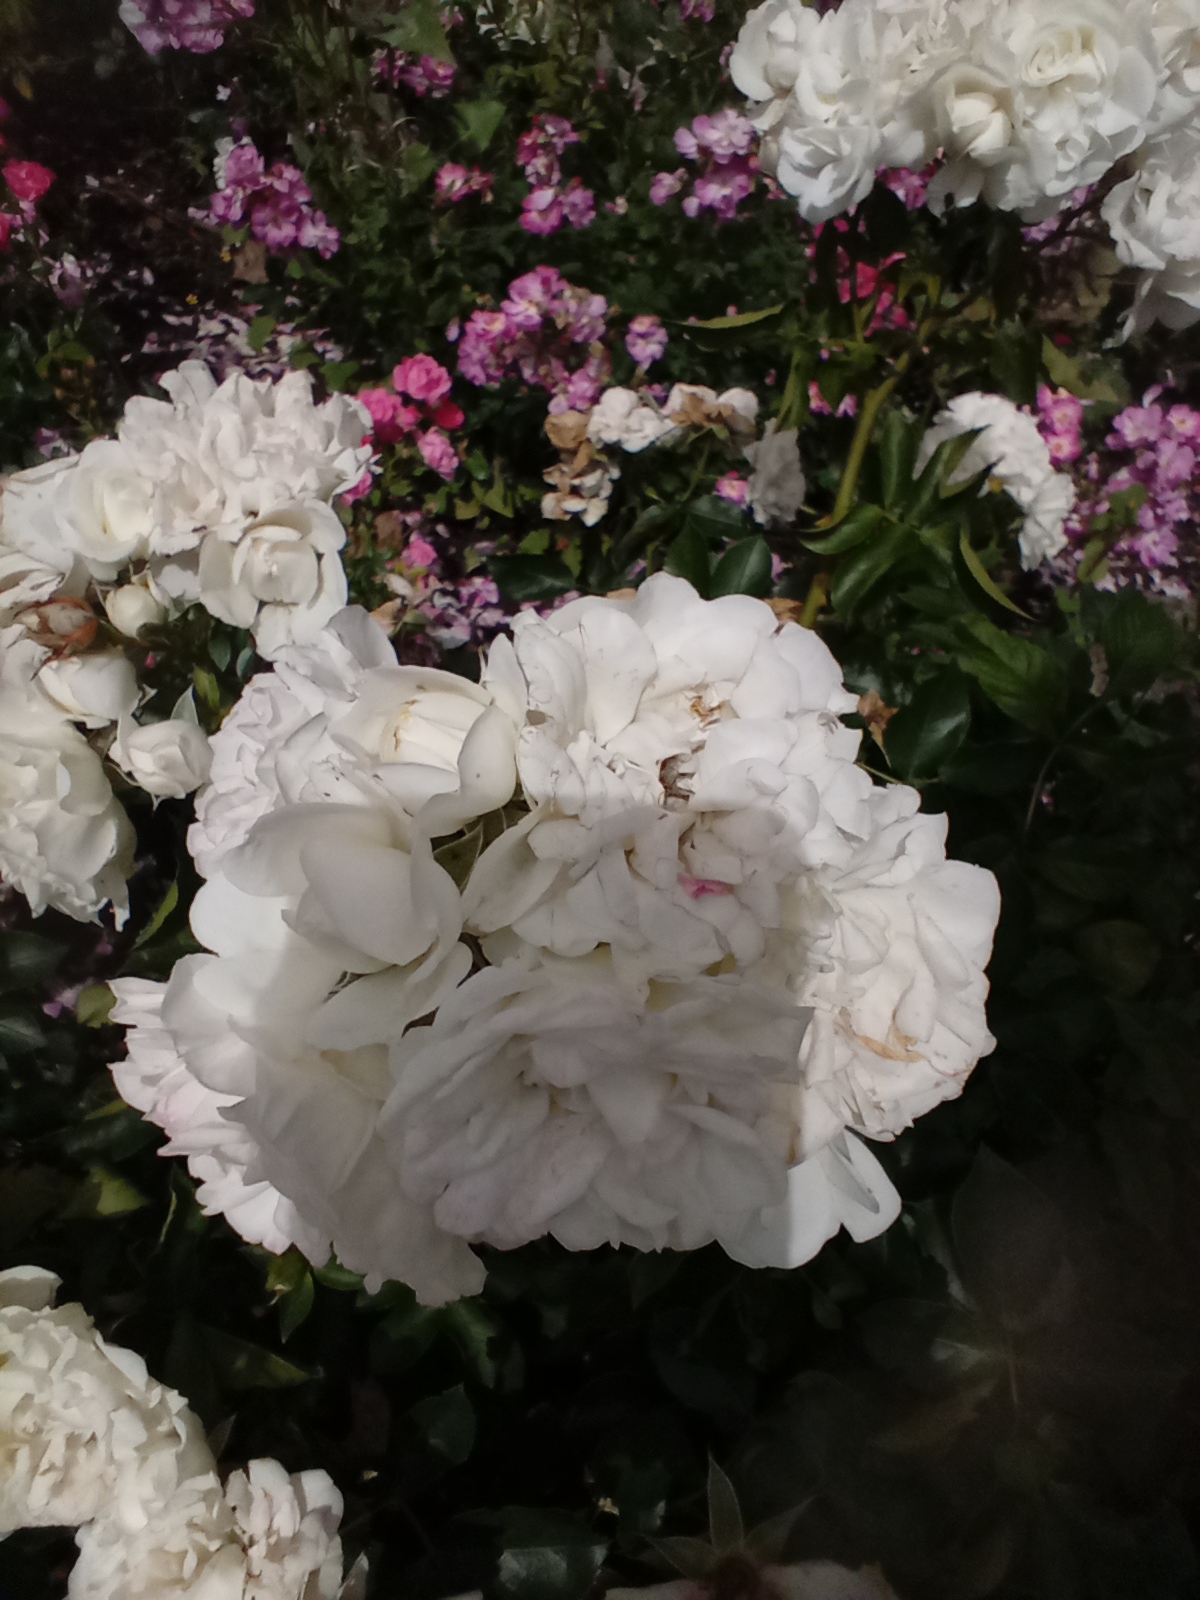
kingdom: Plantae
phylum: Tracheophyta
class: Magnoliopsida
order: Rosales
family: Rosaceae
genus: Rosa
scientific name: Rosa
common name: Roseslægten
